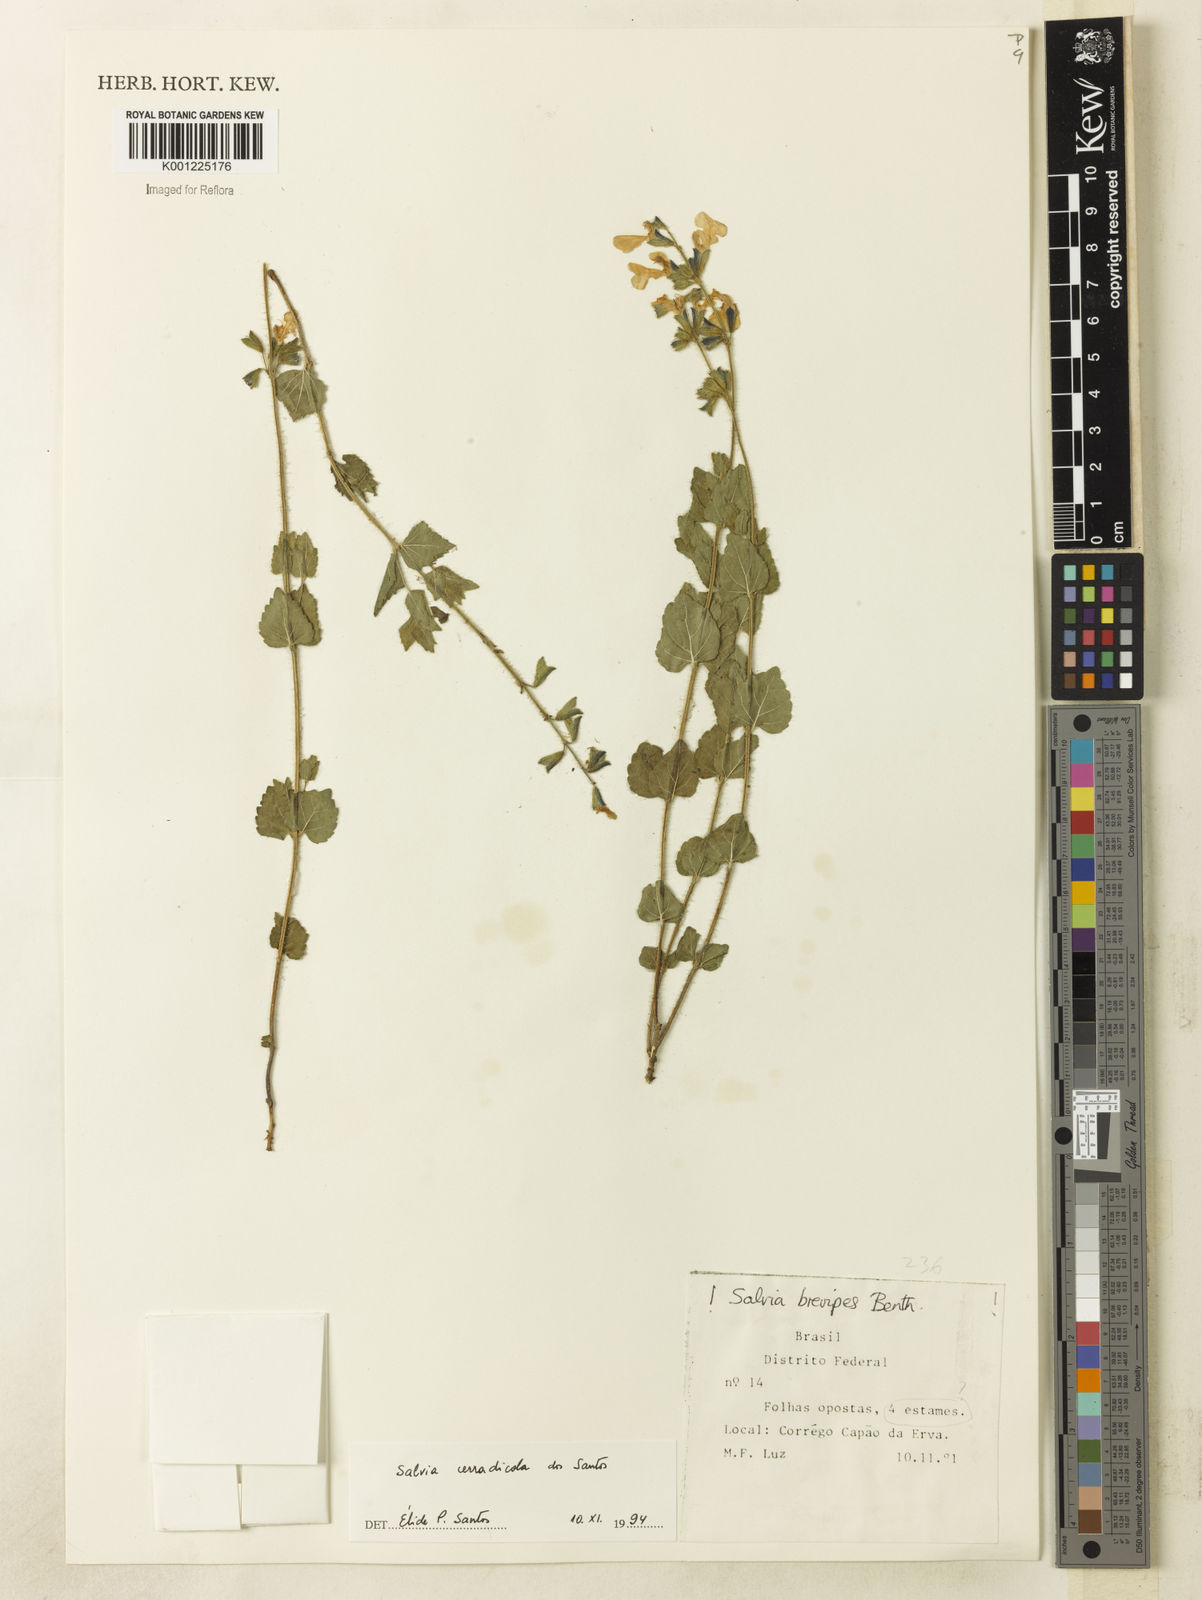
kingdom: Plantae
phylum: Tracheophyta
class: Magnoliopsida
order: Lamiales
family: Lamiaceae
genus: Salvia
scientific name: Salvia cerradicola
